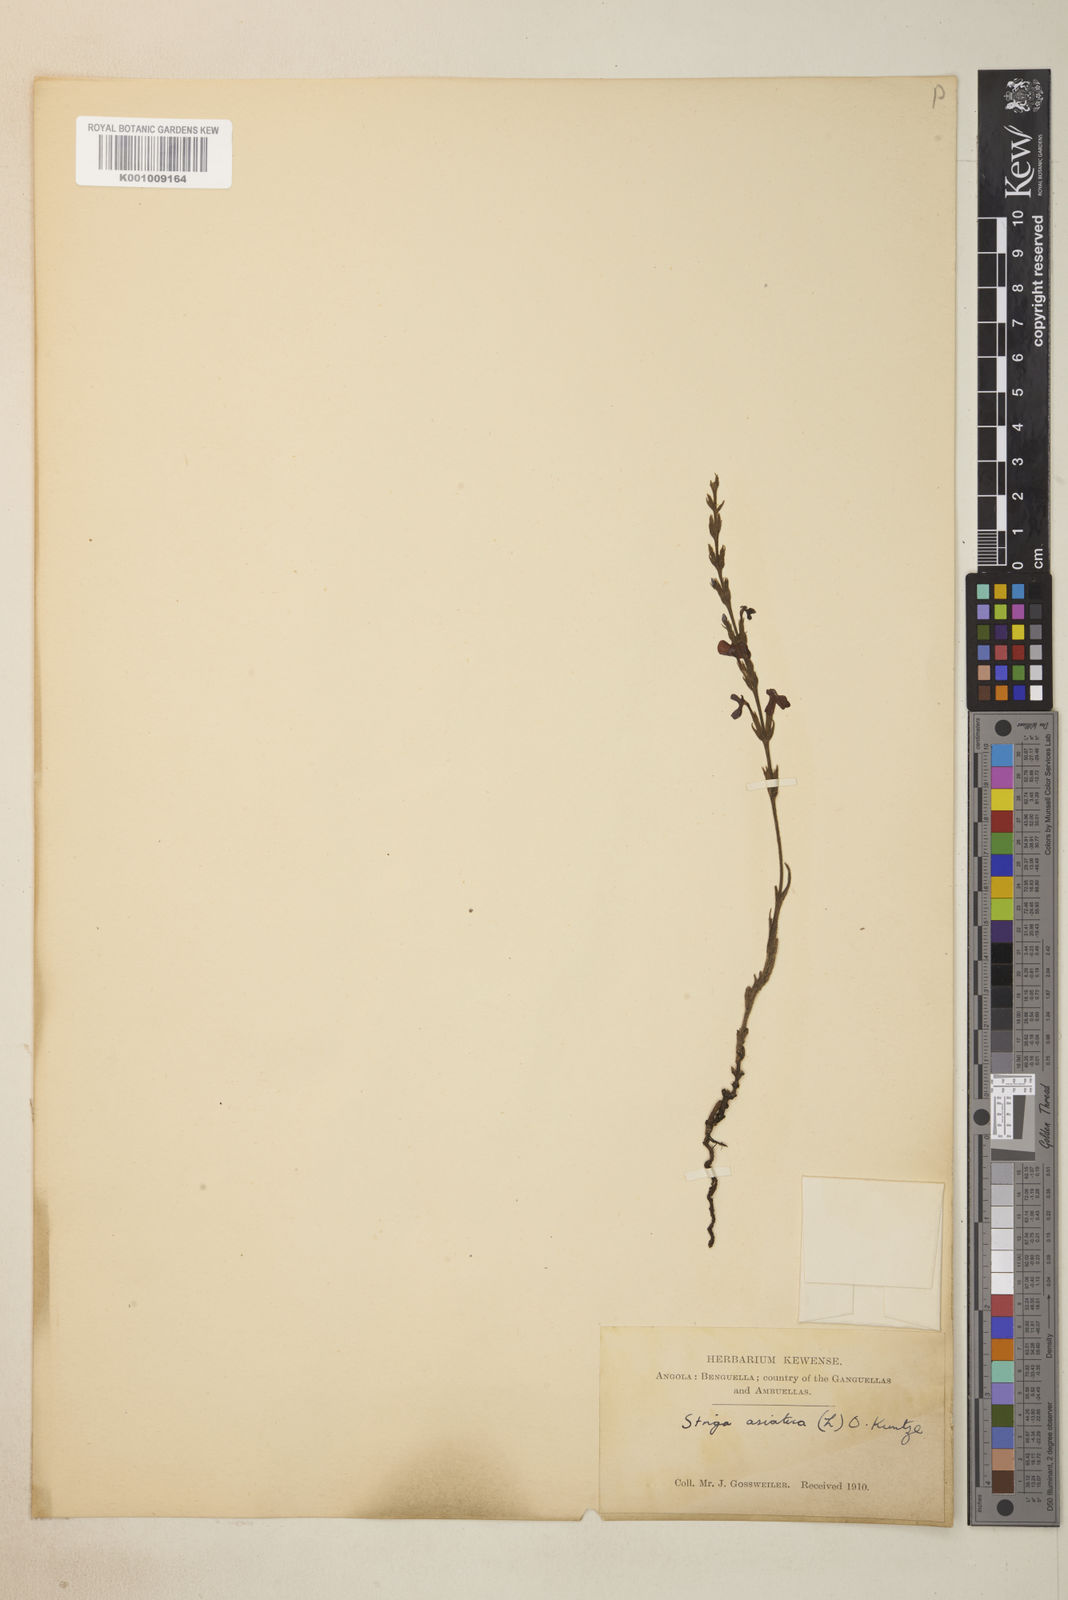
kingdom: Plantae
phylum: Tracheophyta
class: Magnoliopsida
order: Lamiales
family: Orobanchaceae
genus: Striga
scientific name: Striga asiatica
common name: Asiatic witchweed
